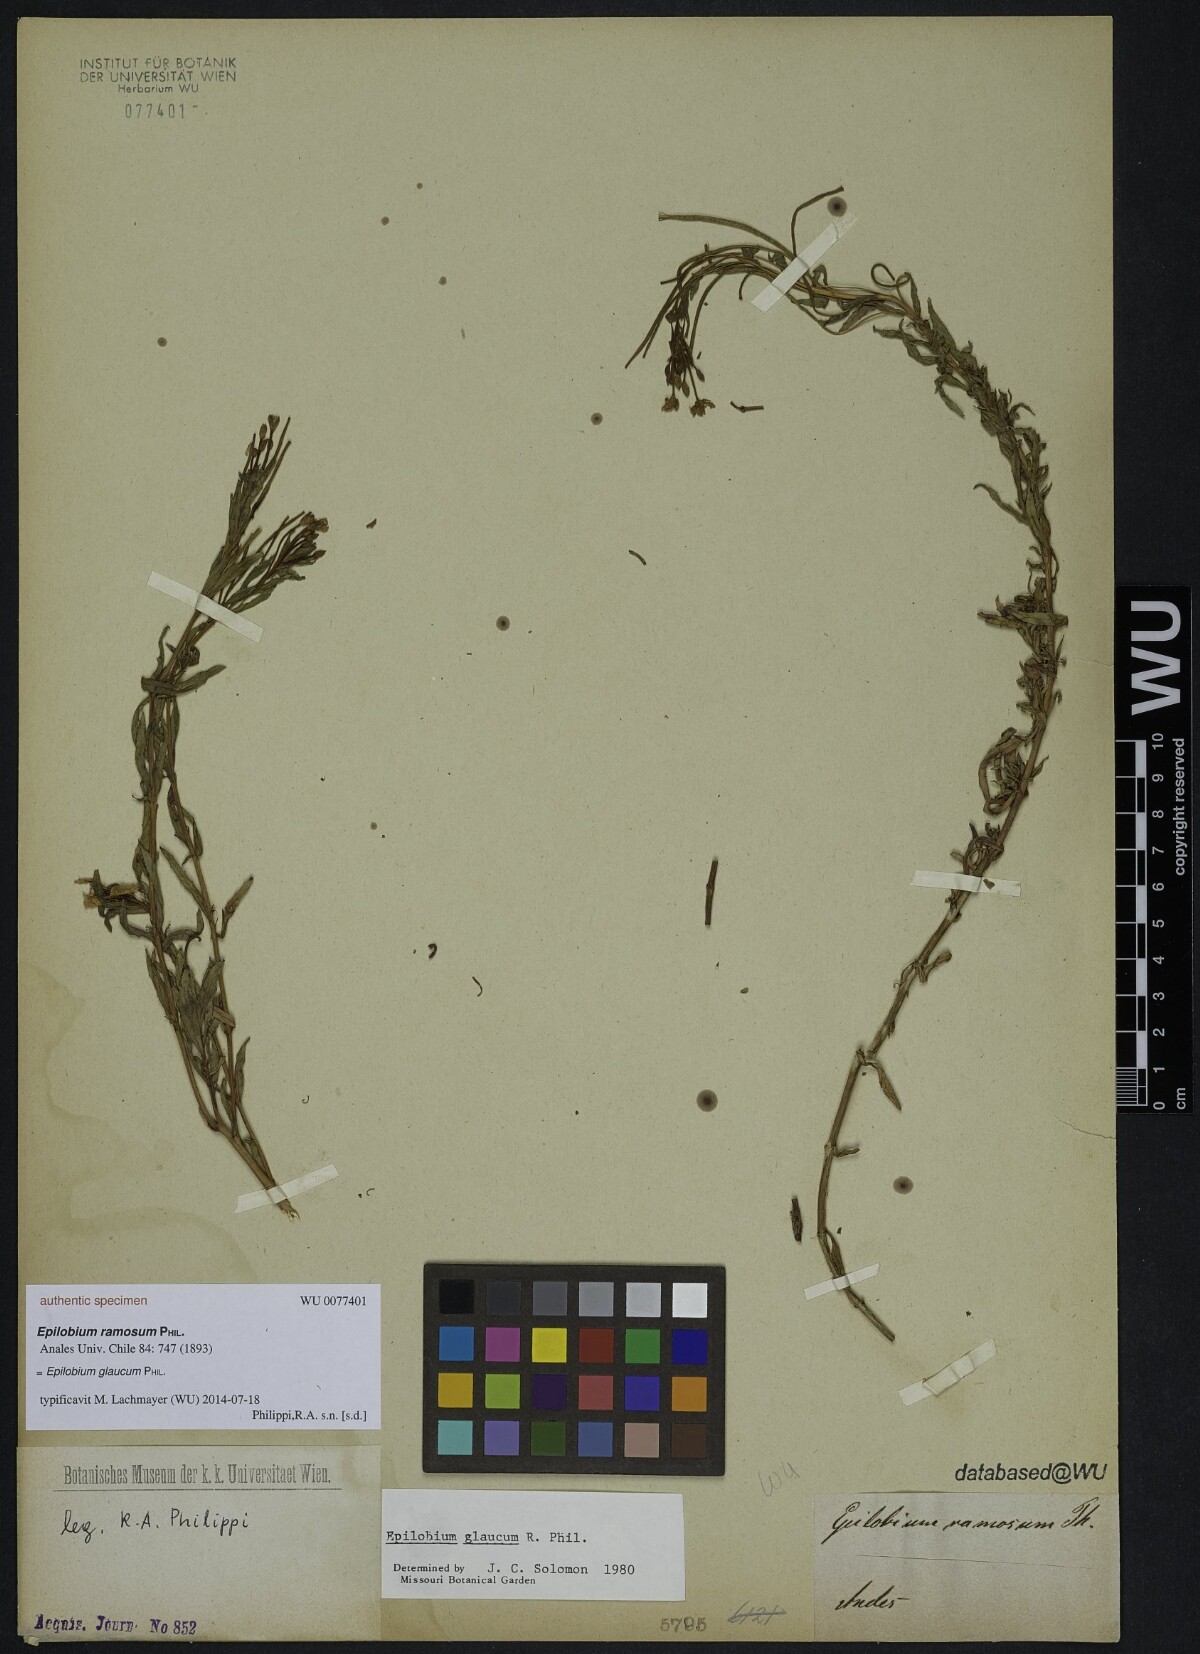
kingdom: Plantae
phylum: Tracheophyta
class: Magnoliopsida
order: Myrtales
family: Onagraceae
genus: Epilobium
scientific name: Epilobium glaucum
